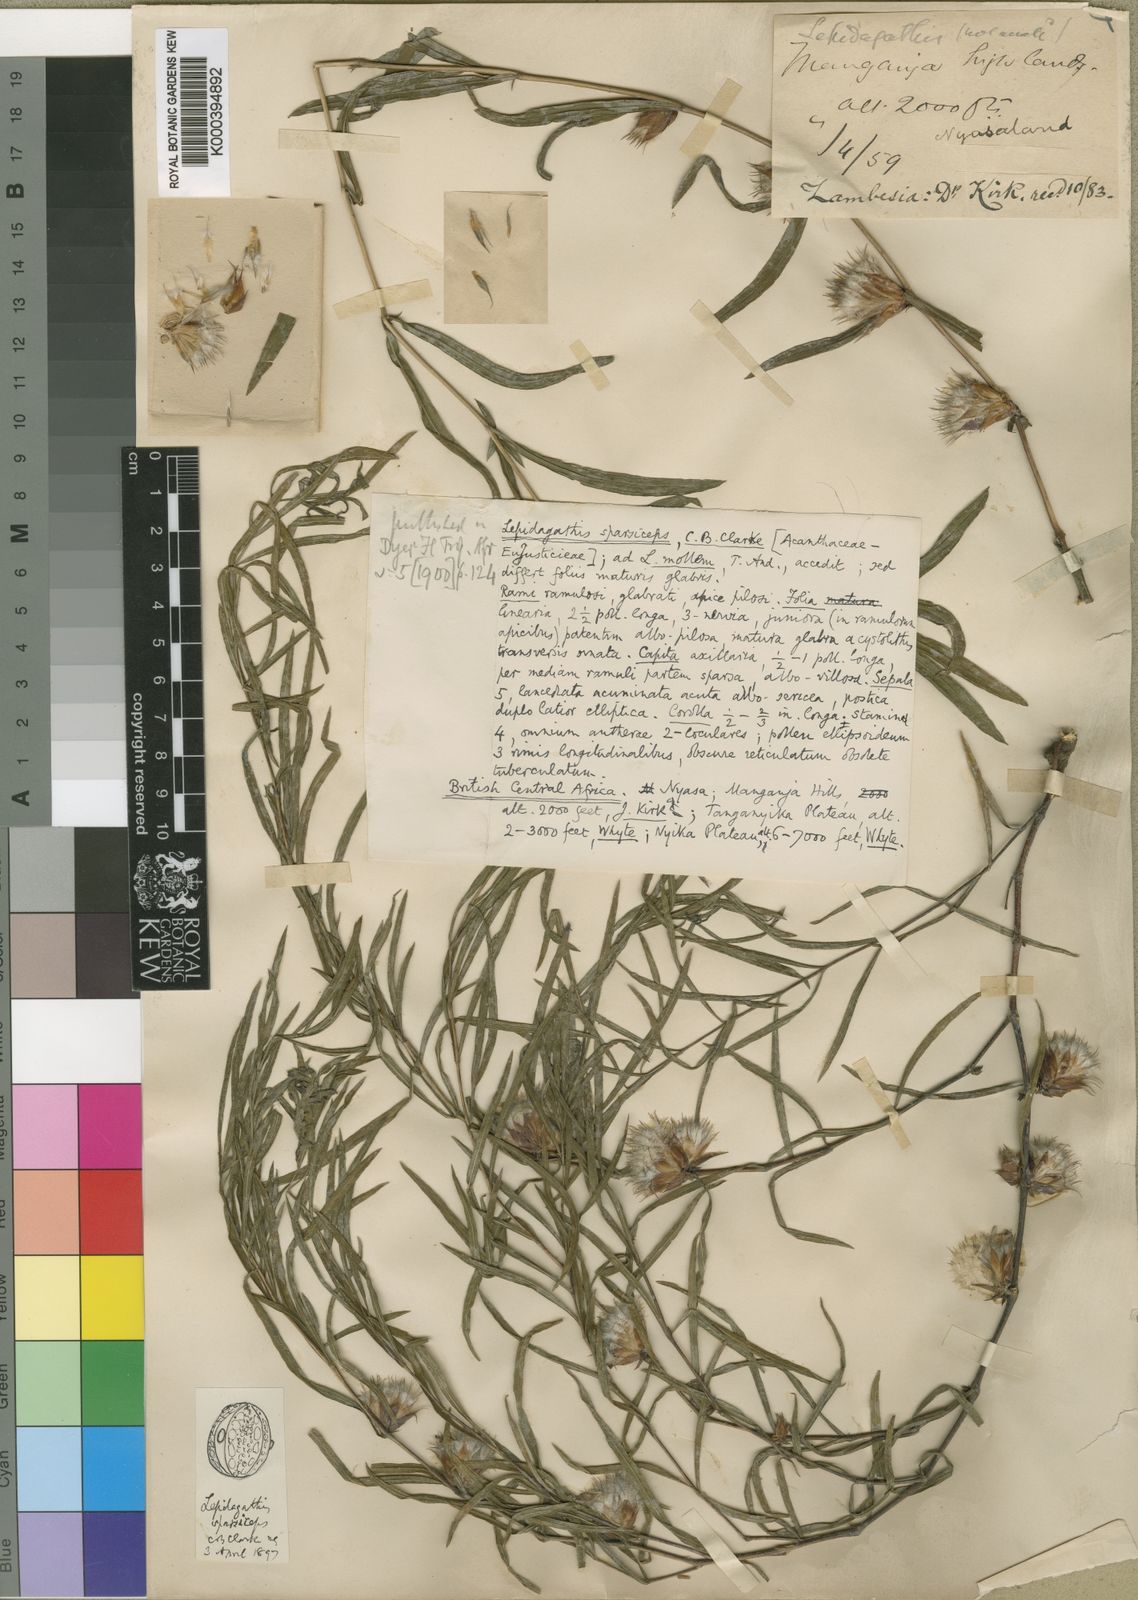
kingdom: Plantae
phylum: Tracheophyta
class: Magnoliopsida
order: Lamiales
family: Acanthaceae
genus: Lepidagathis
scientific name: Lepidagathis lanatoglabra
